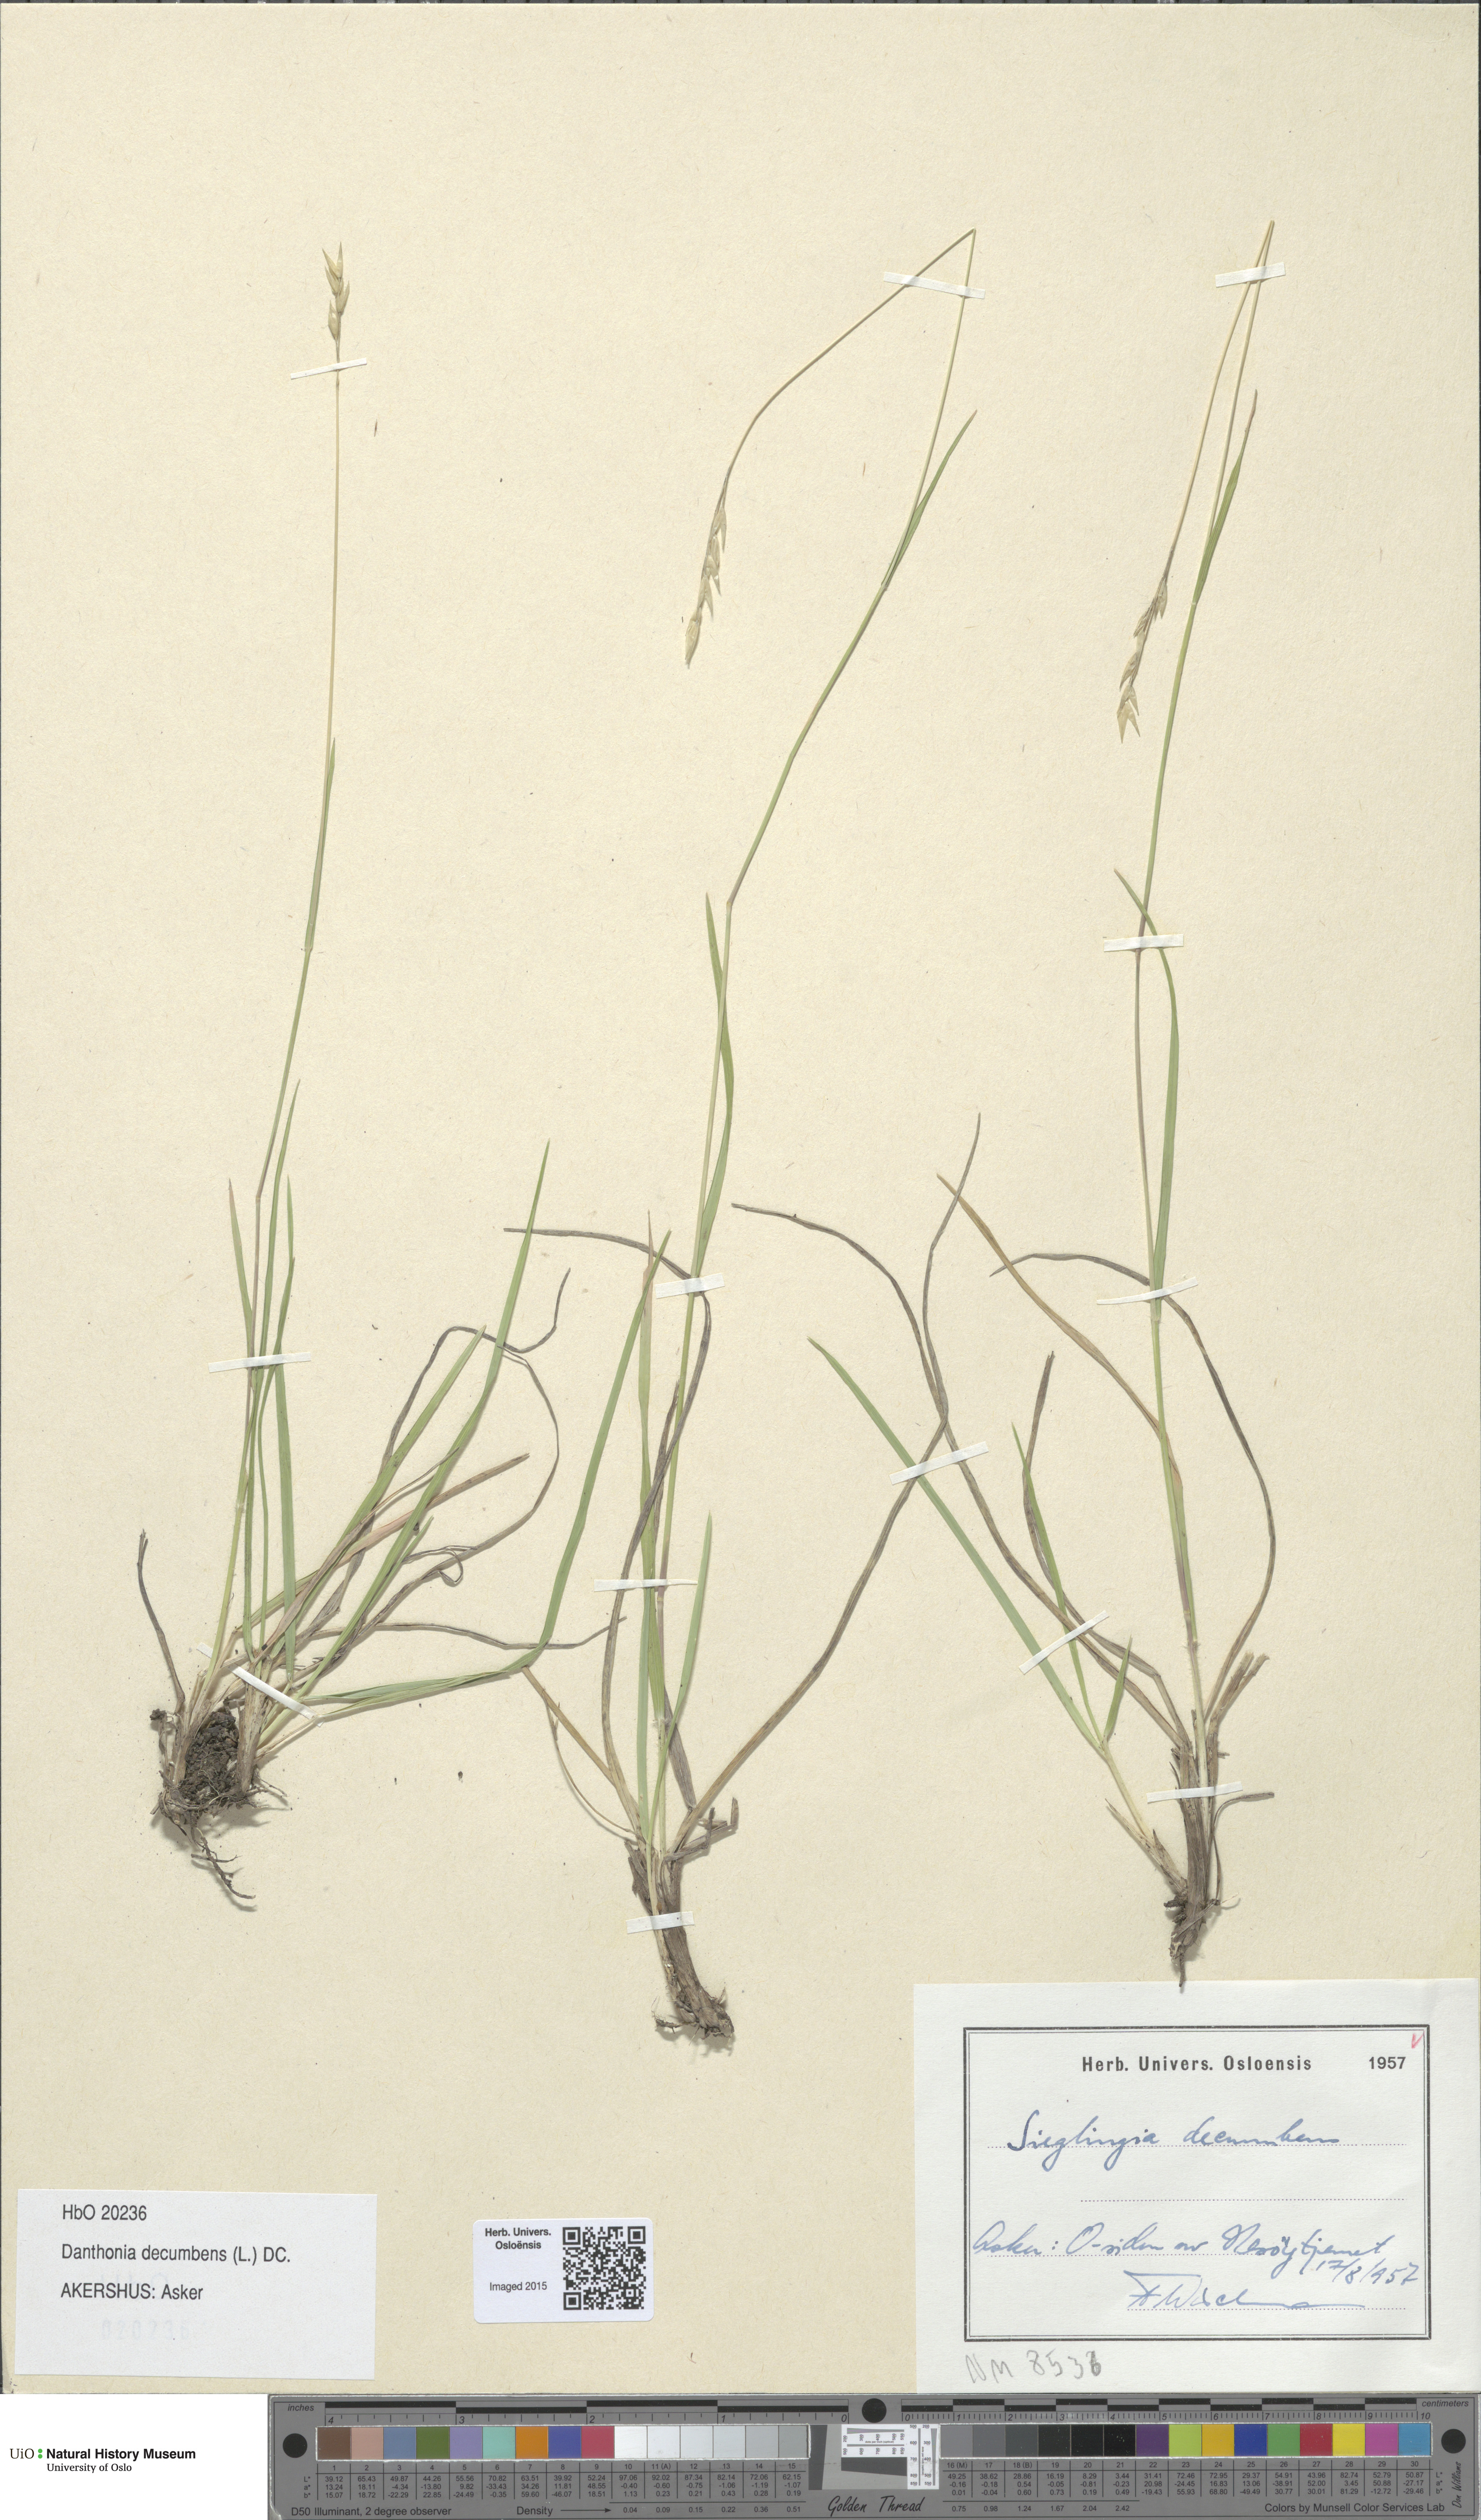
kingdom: Plantae
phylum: Tracheophyta
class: Liliopsida
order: Poales
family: Poaceae
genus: Danthonia
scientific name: Danthonia decumbens
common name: Common heathgrass
